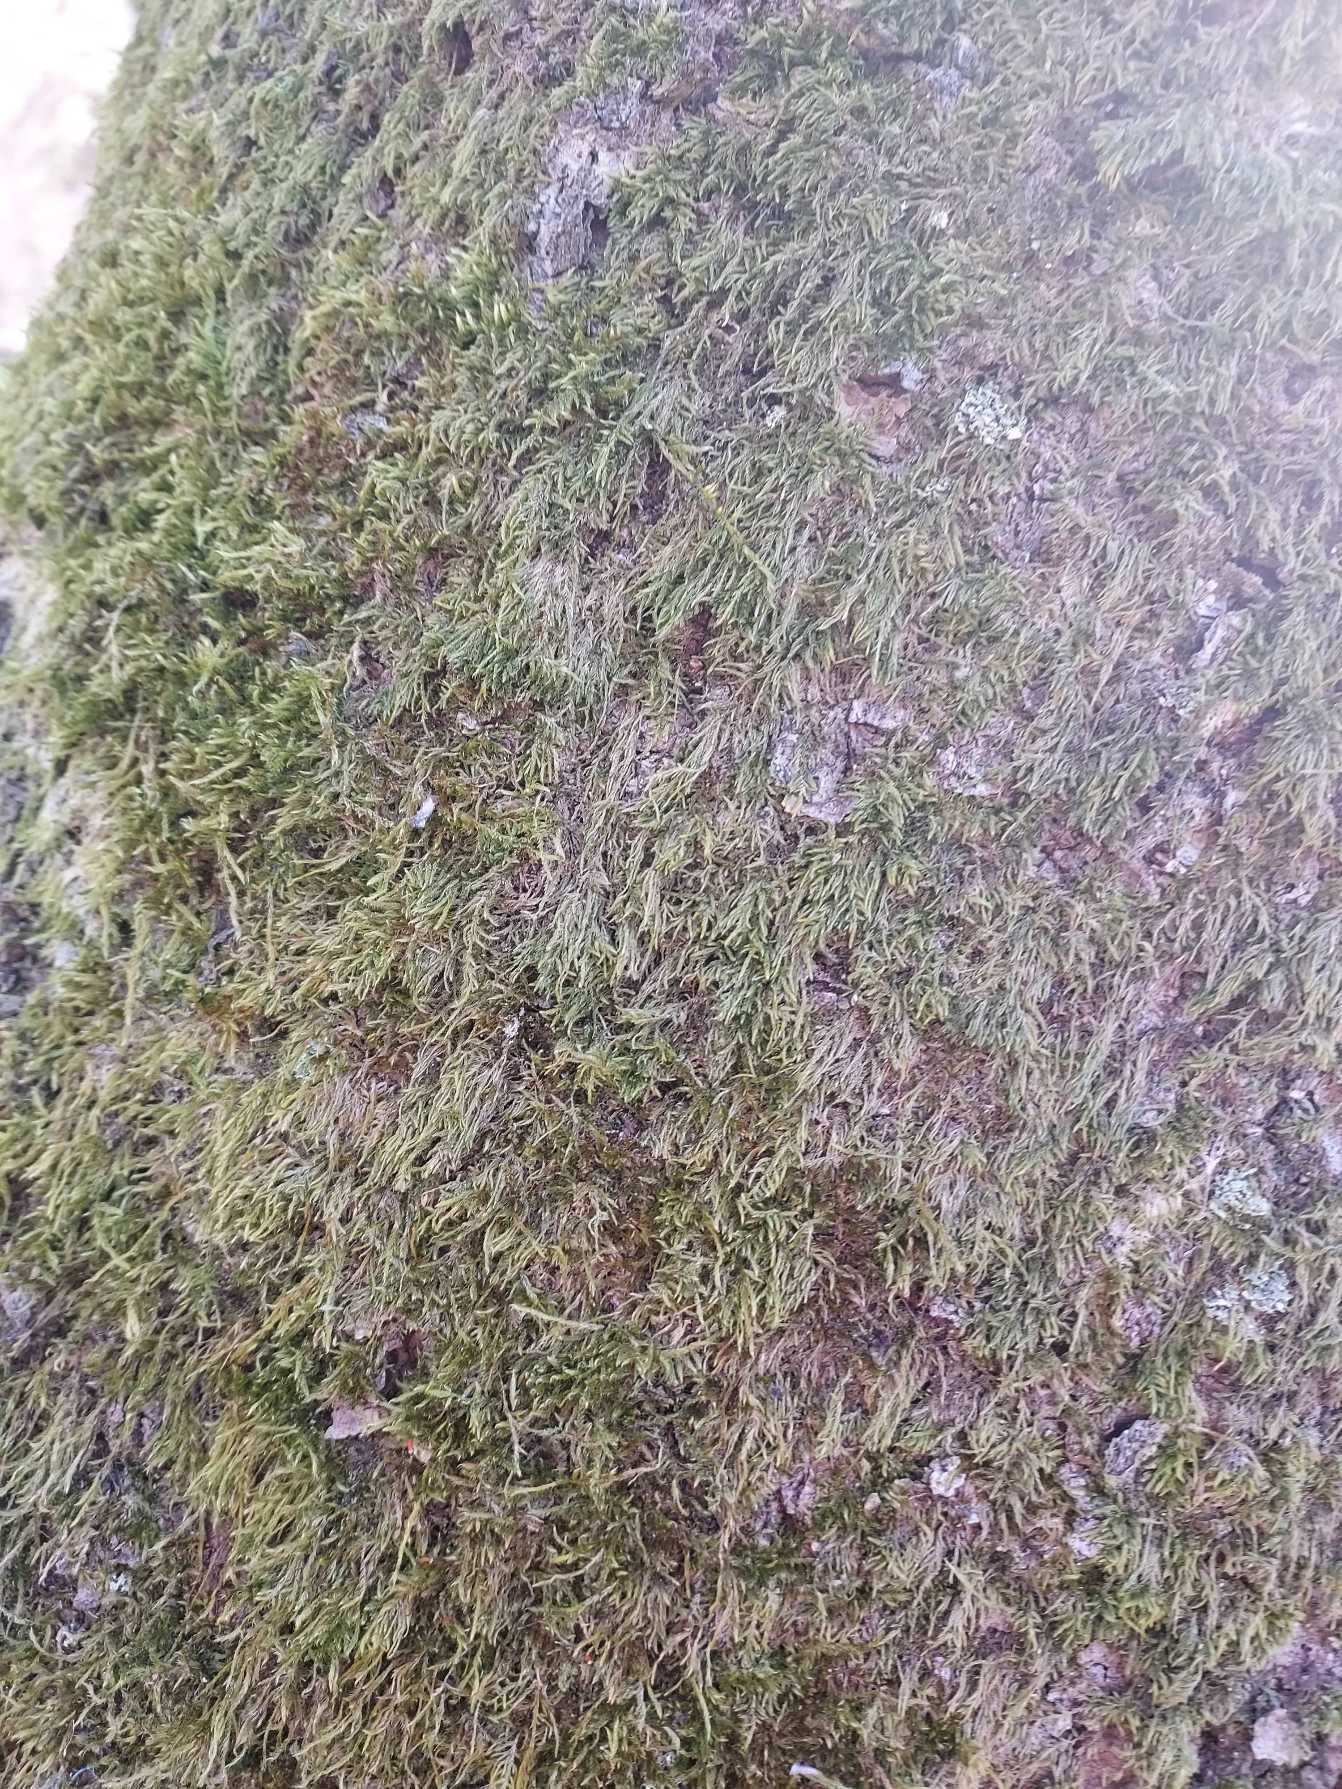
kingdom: Plantae
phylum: Bryophyta
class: Bryopsida
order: Hypnales
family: Hypnaceae
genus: Hypnum
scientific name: Hypnum
